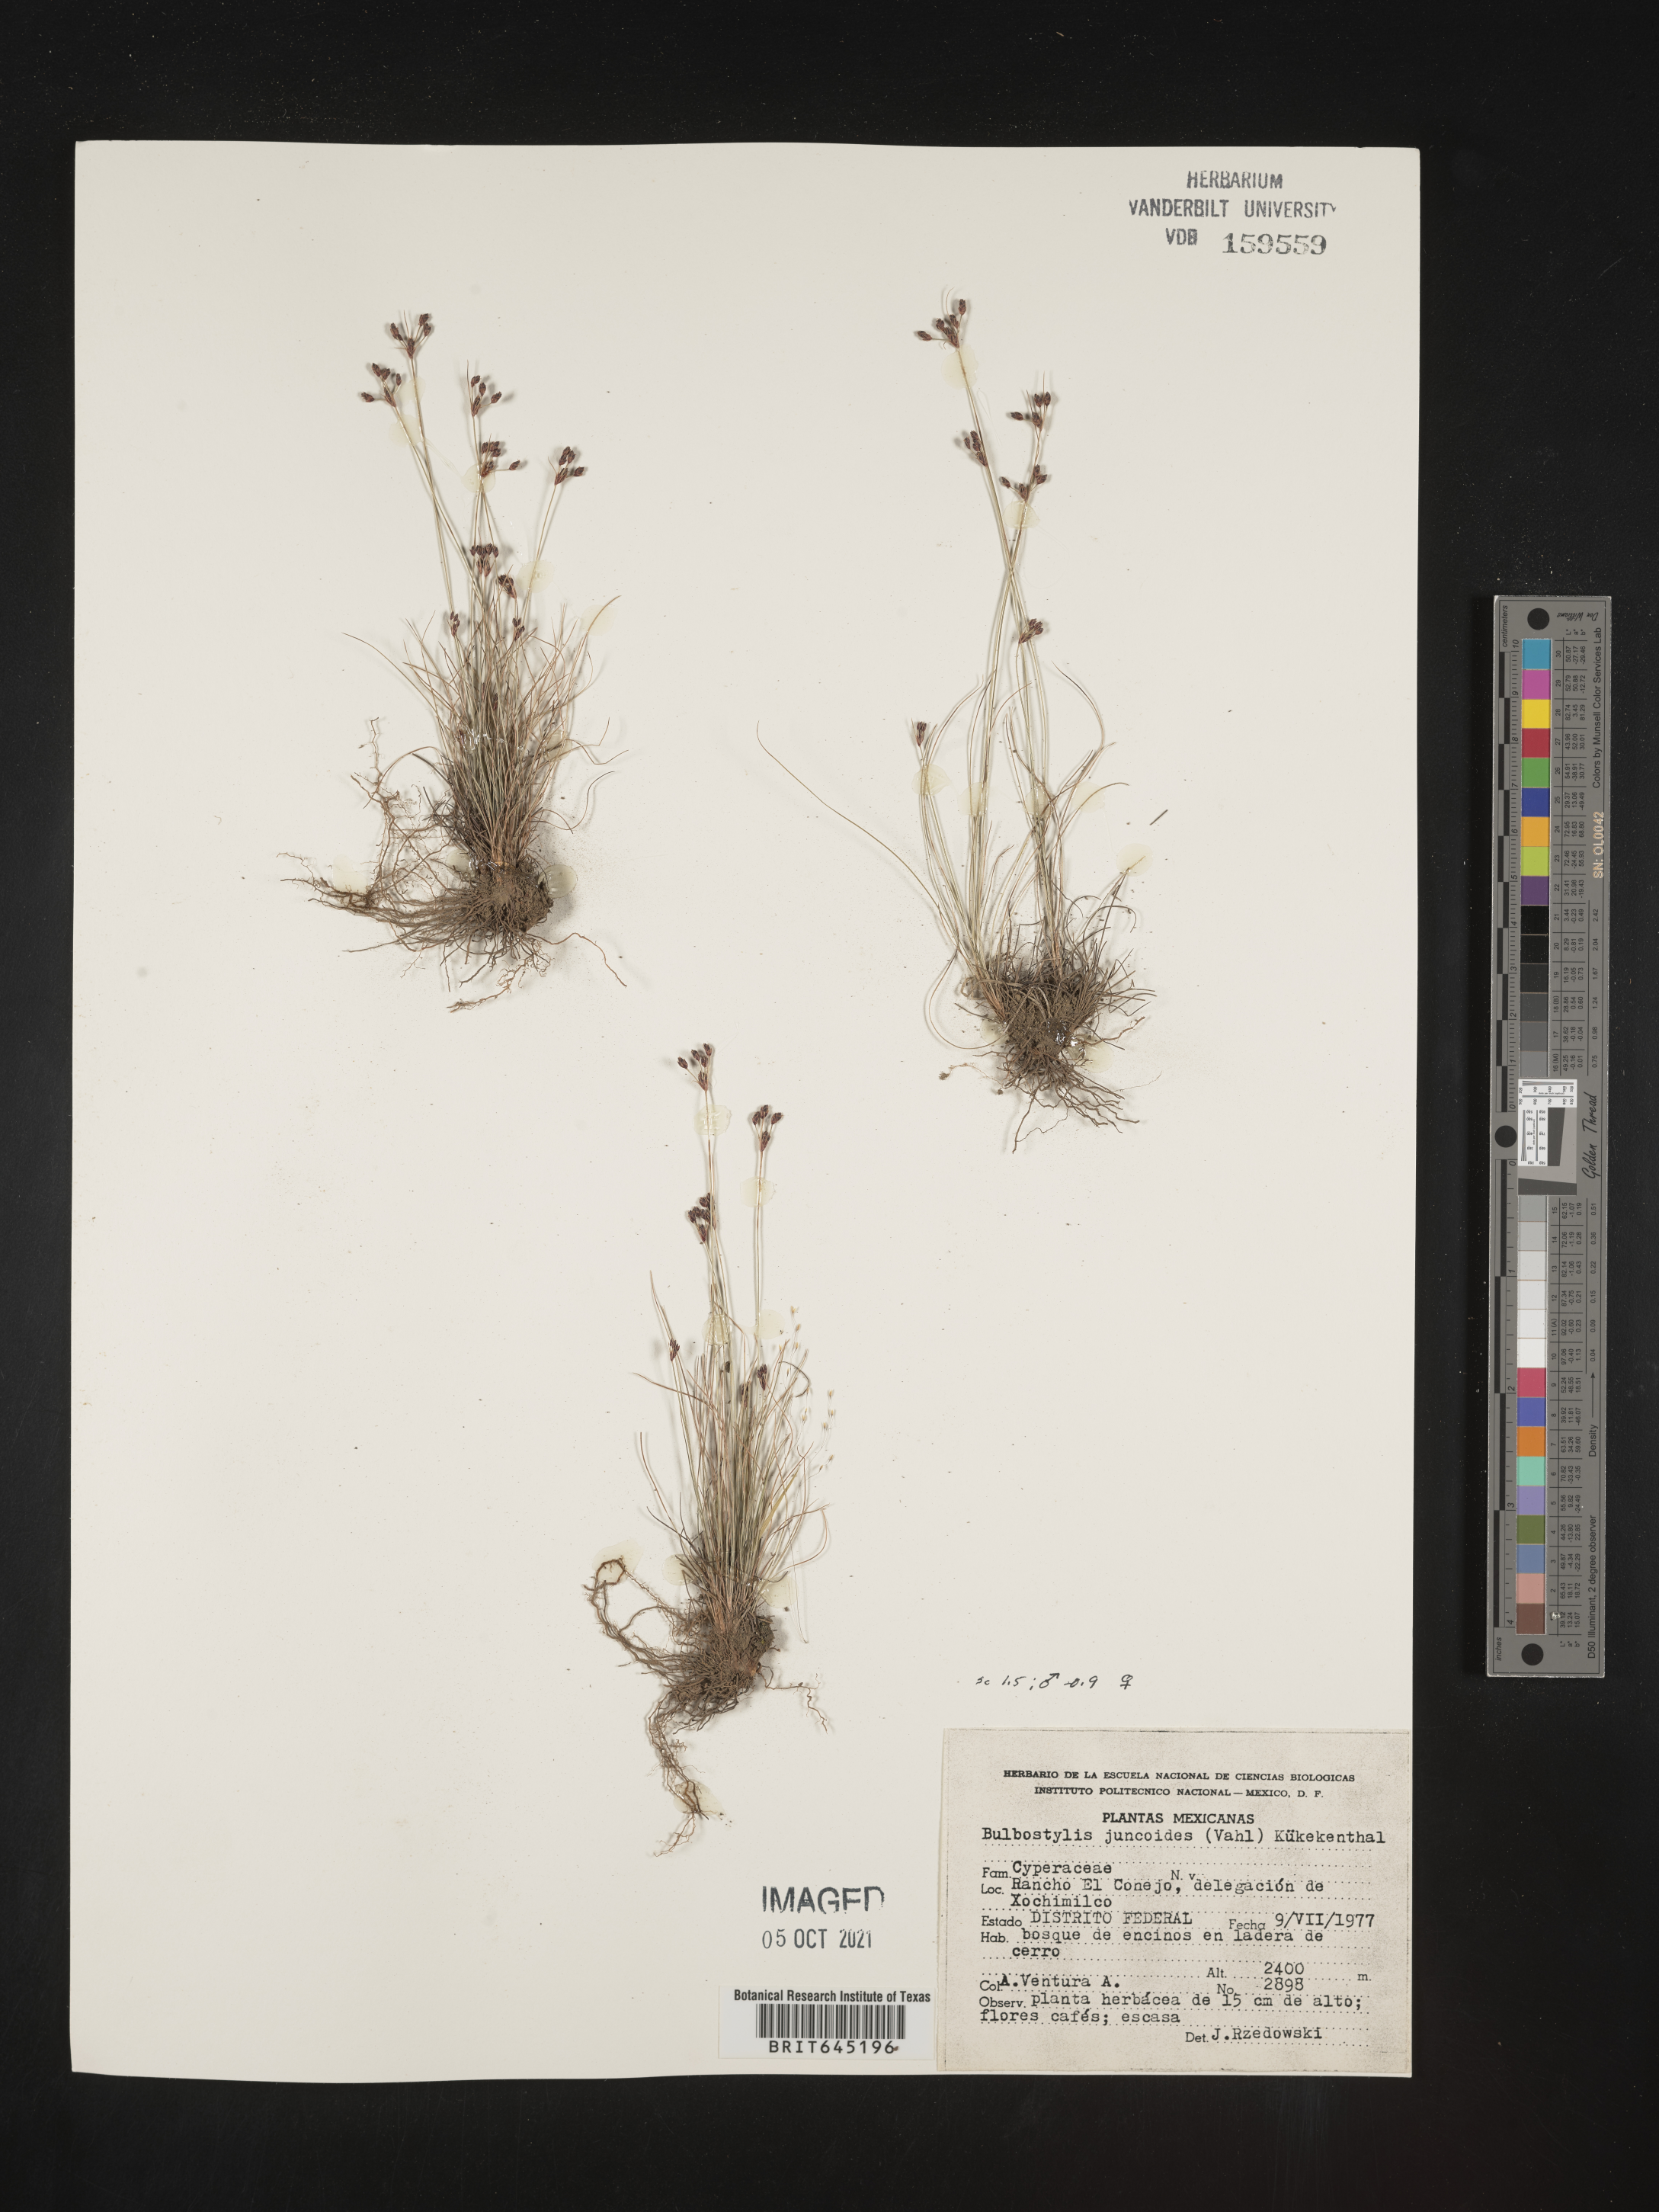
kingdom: Plantae
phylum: Tracheophyta
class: Liliopsida
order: Poales
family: Cyperaceae
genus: Bulbostylis
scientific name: Bulbostylis juncoides
